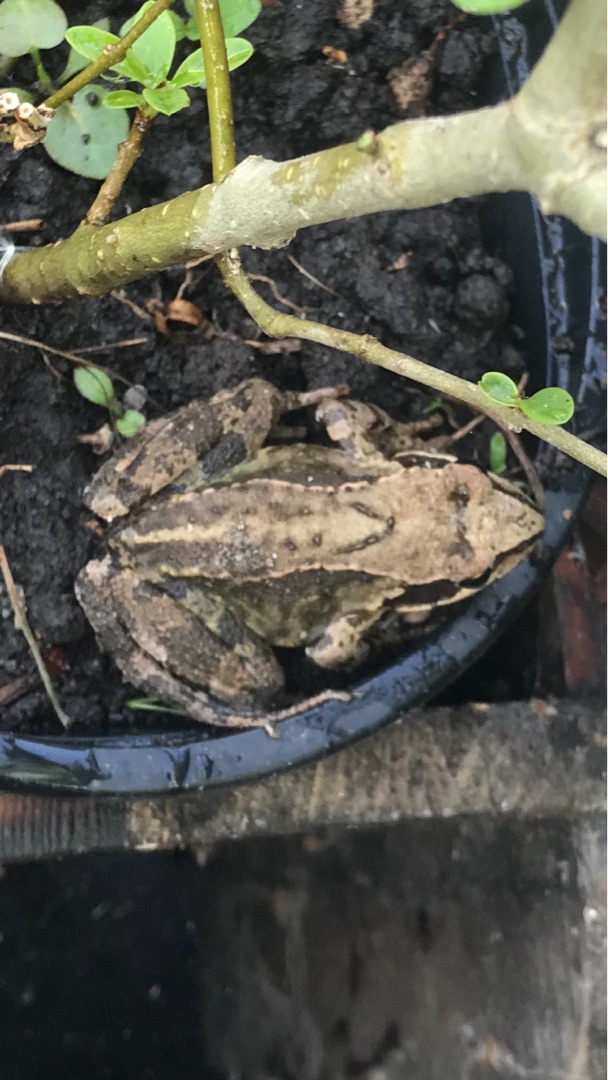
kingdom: Animalia
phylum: Chordata
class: Amphibia
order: Anura
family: Ranidae
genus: Rana
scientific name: Rana temporaria
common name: Butsnudet frø
